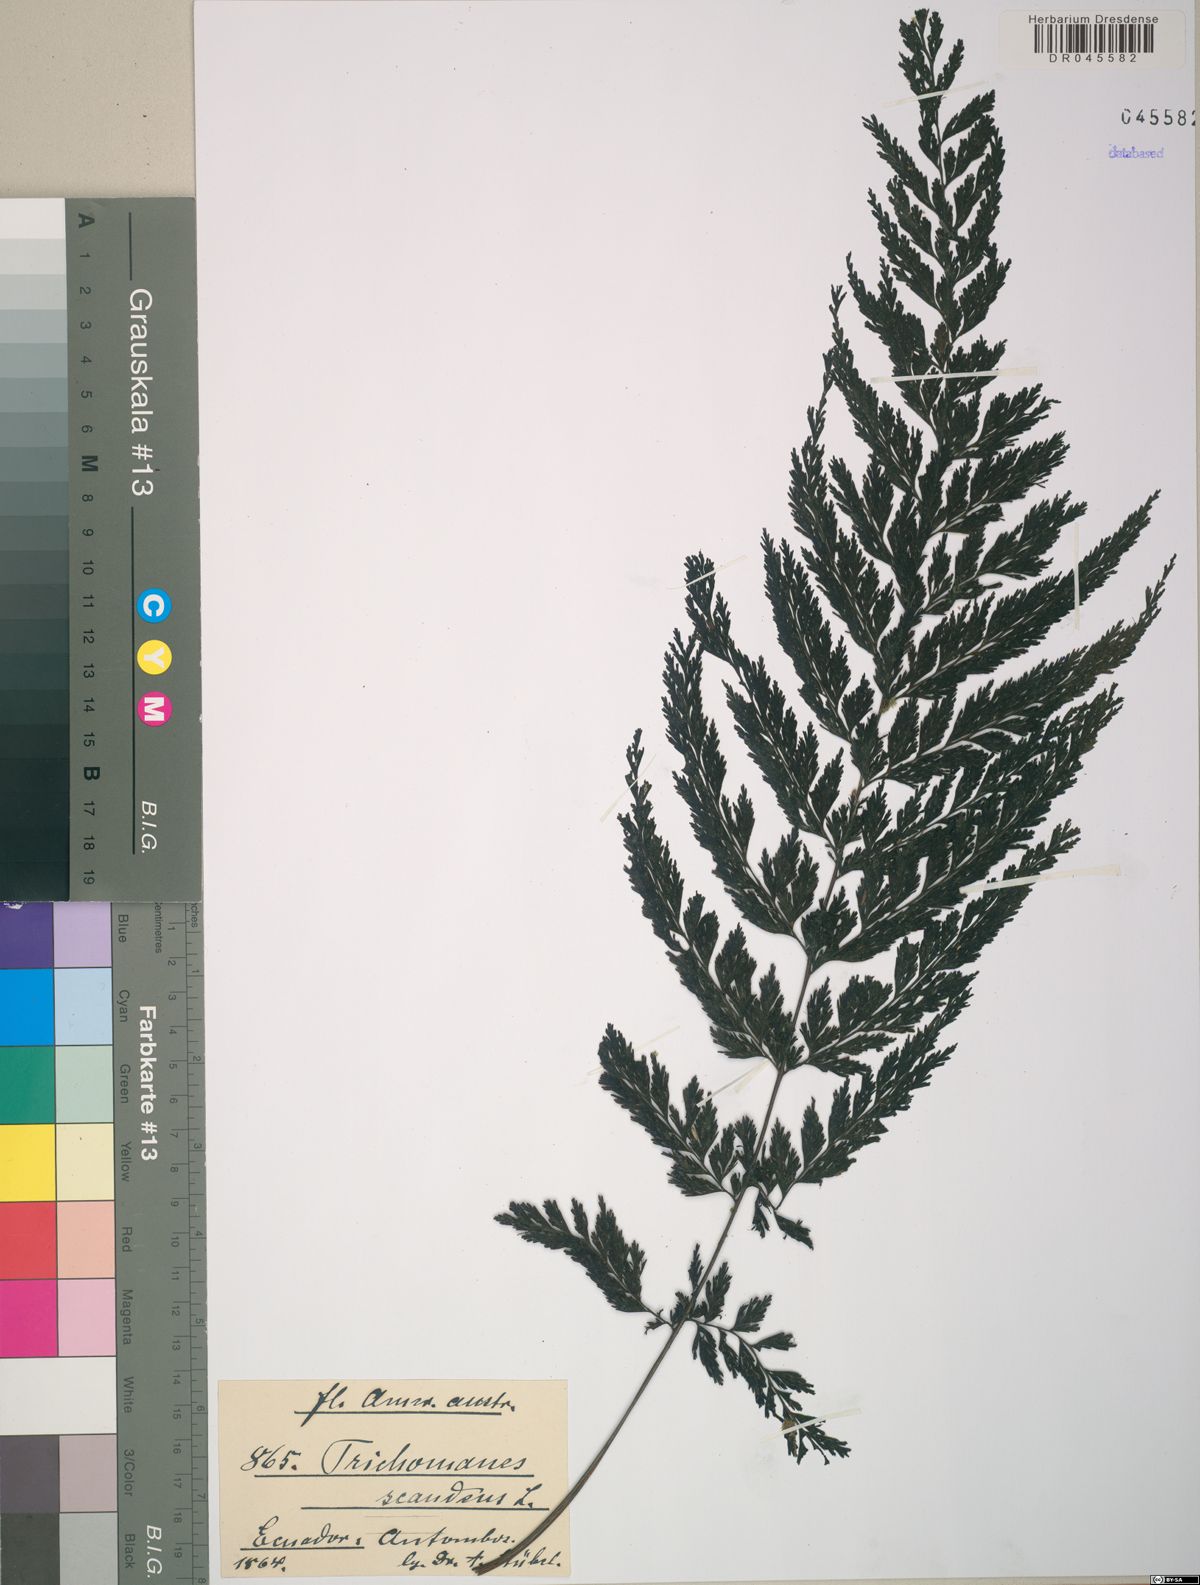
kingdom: Plantae
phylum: Tracheophyta
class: Polypodiopsida
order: Hymenophyllales
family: Hymenophyllaceae
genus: Trichomanes
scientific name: Trichomanes scandens
